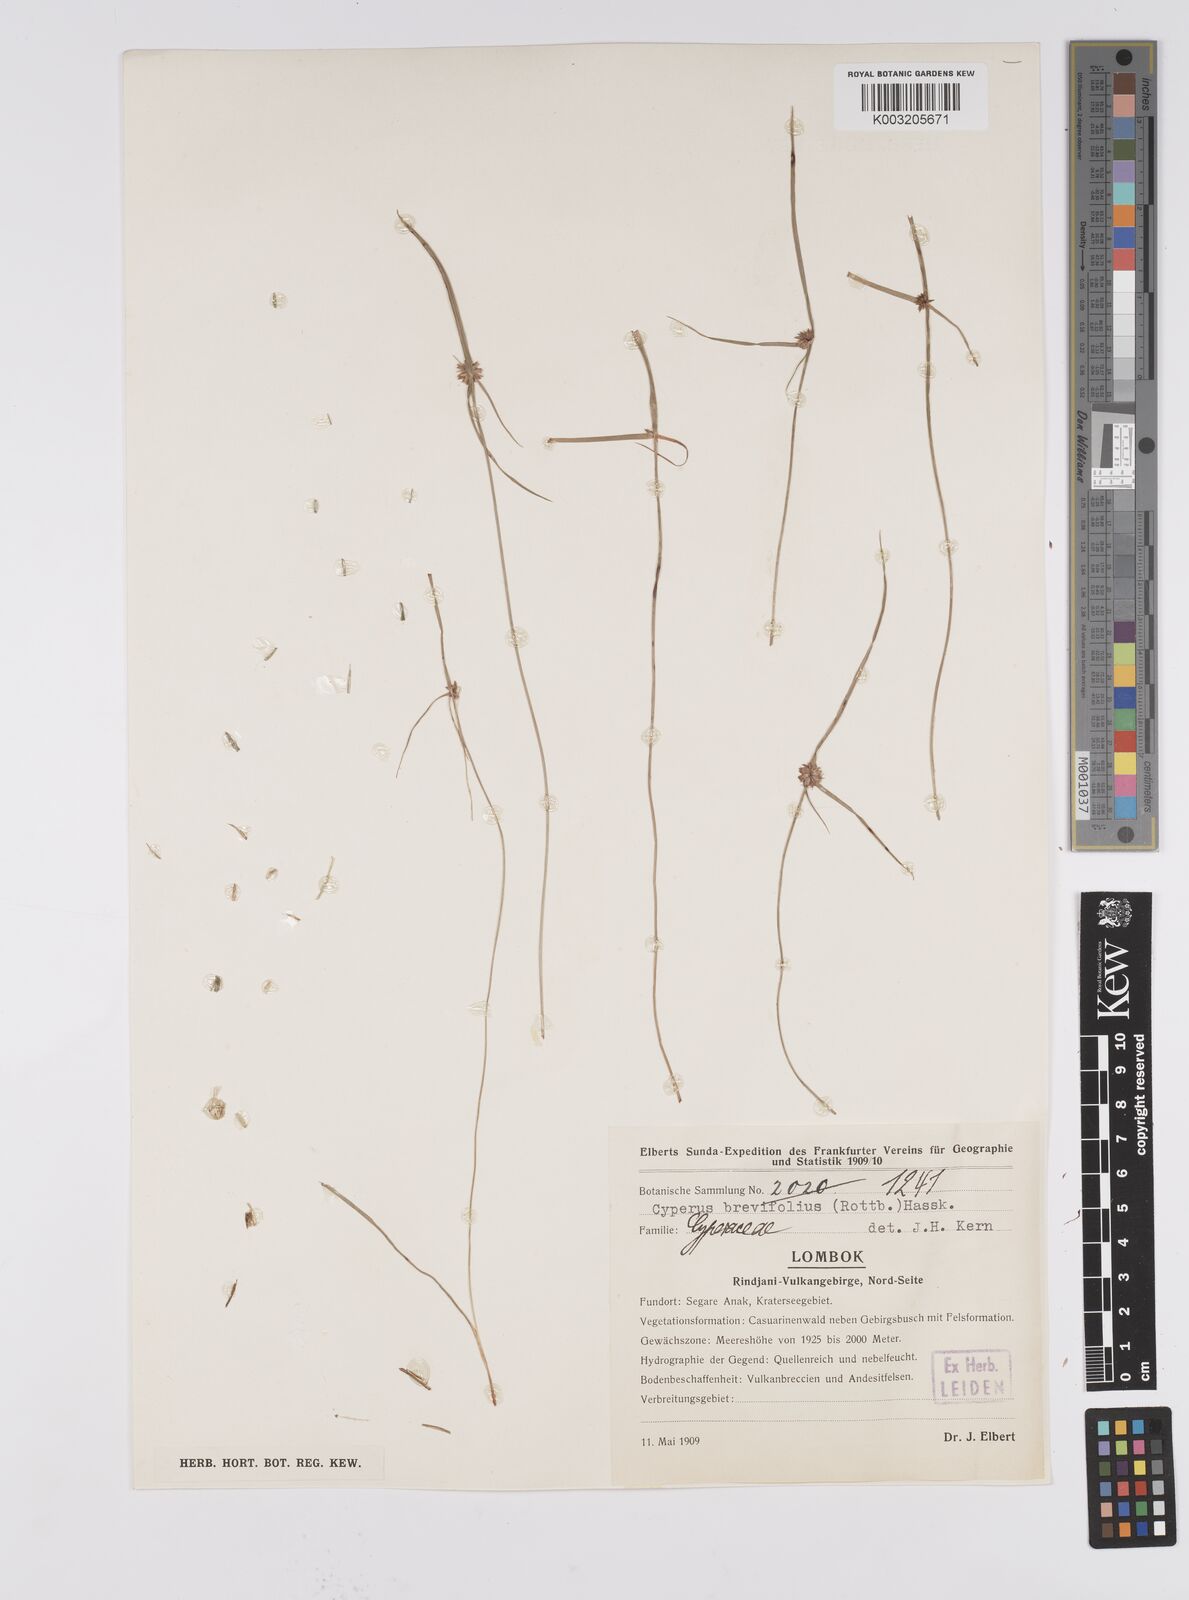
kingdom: Plantae
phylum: Tracheophyta
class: Liliopsida
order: Poales
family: Cyperaceae
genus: Cyperus
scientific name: Cyperus brevifolius
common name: Globe kyllinga
